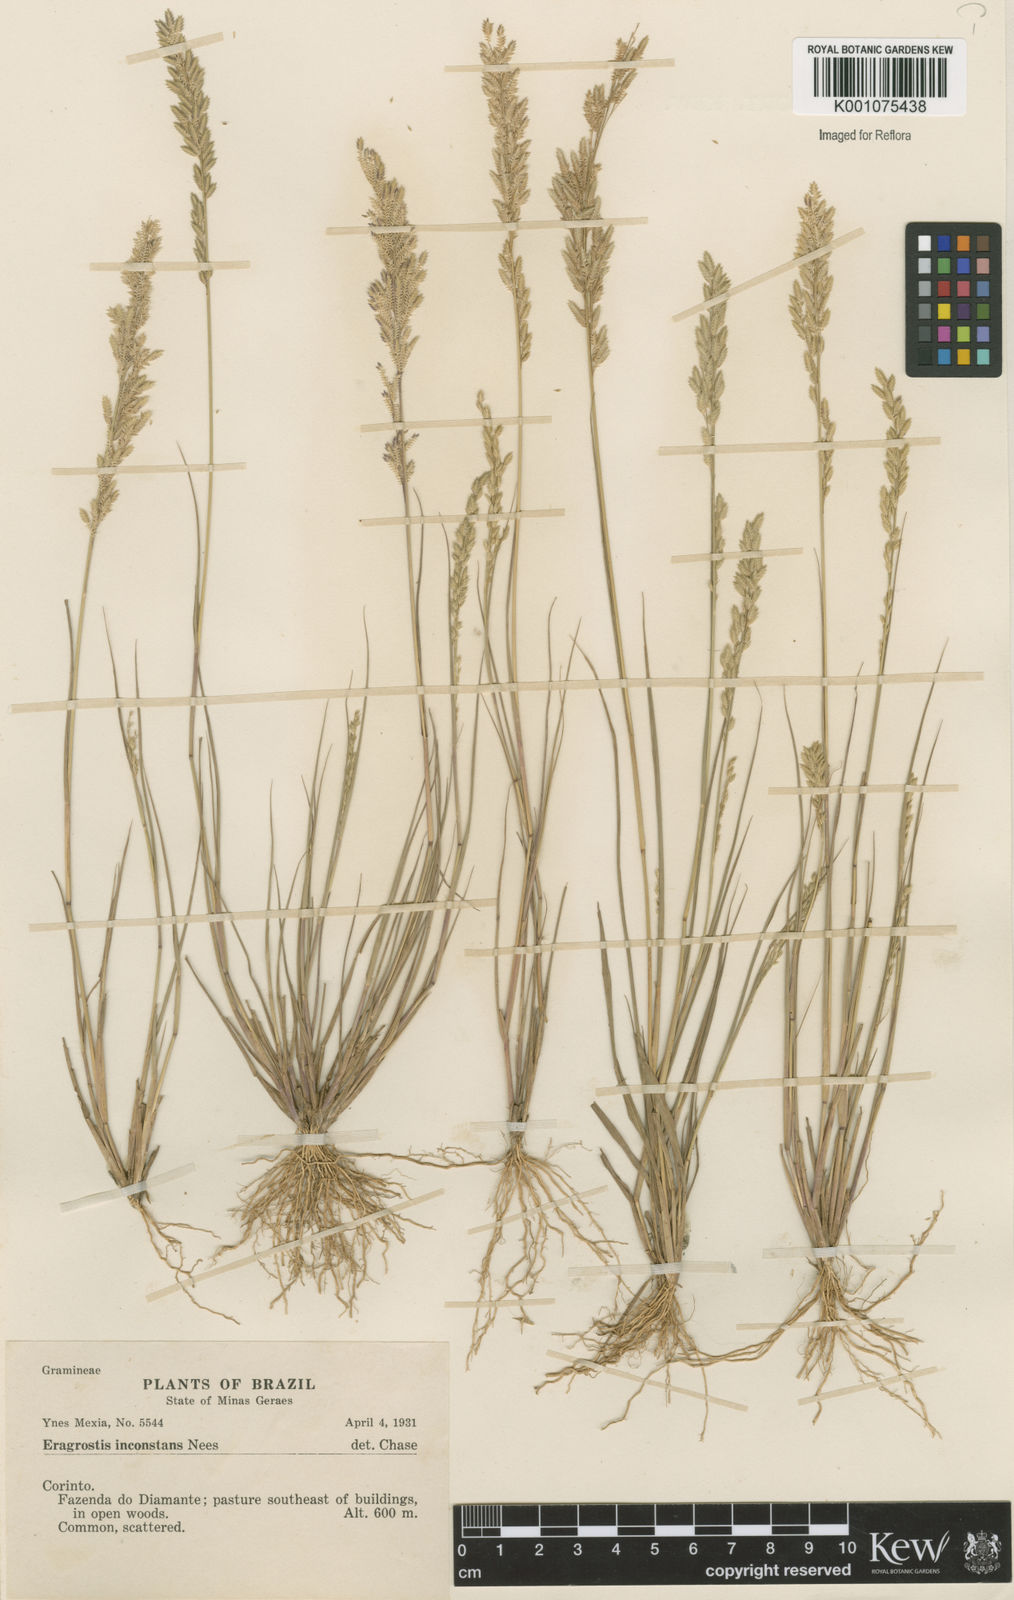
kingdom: Plantae
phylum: Tracheophyta
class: Liliopsida
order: Poales
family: Poaceae
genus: Eragrostis
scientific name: Eragrostis rufescens
